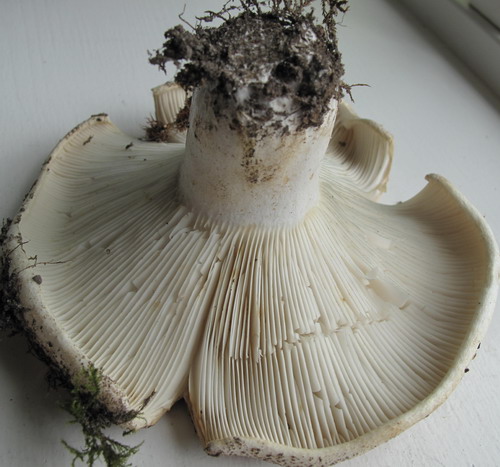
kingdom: Fungi
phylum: Basidiomycota
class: Agaricomycetes
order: Russulales
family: Russulaceae
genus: Russula
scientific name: Russula chloroides
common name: grønhalset tragt-skørhat
